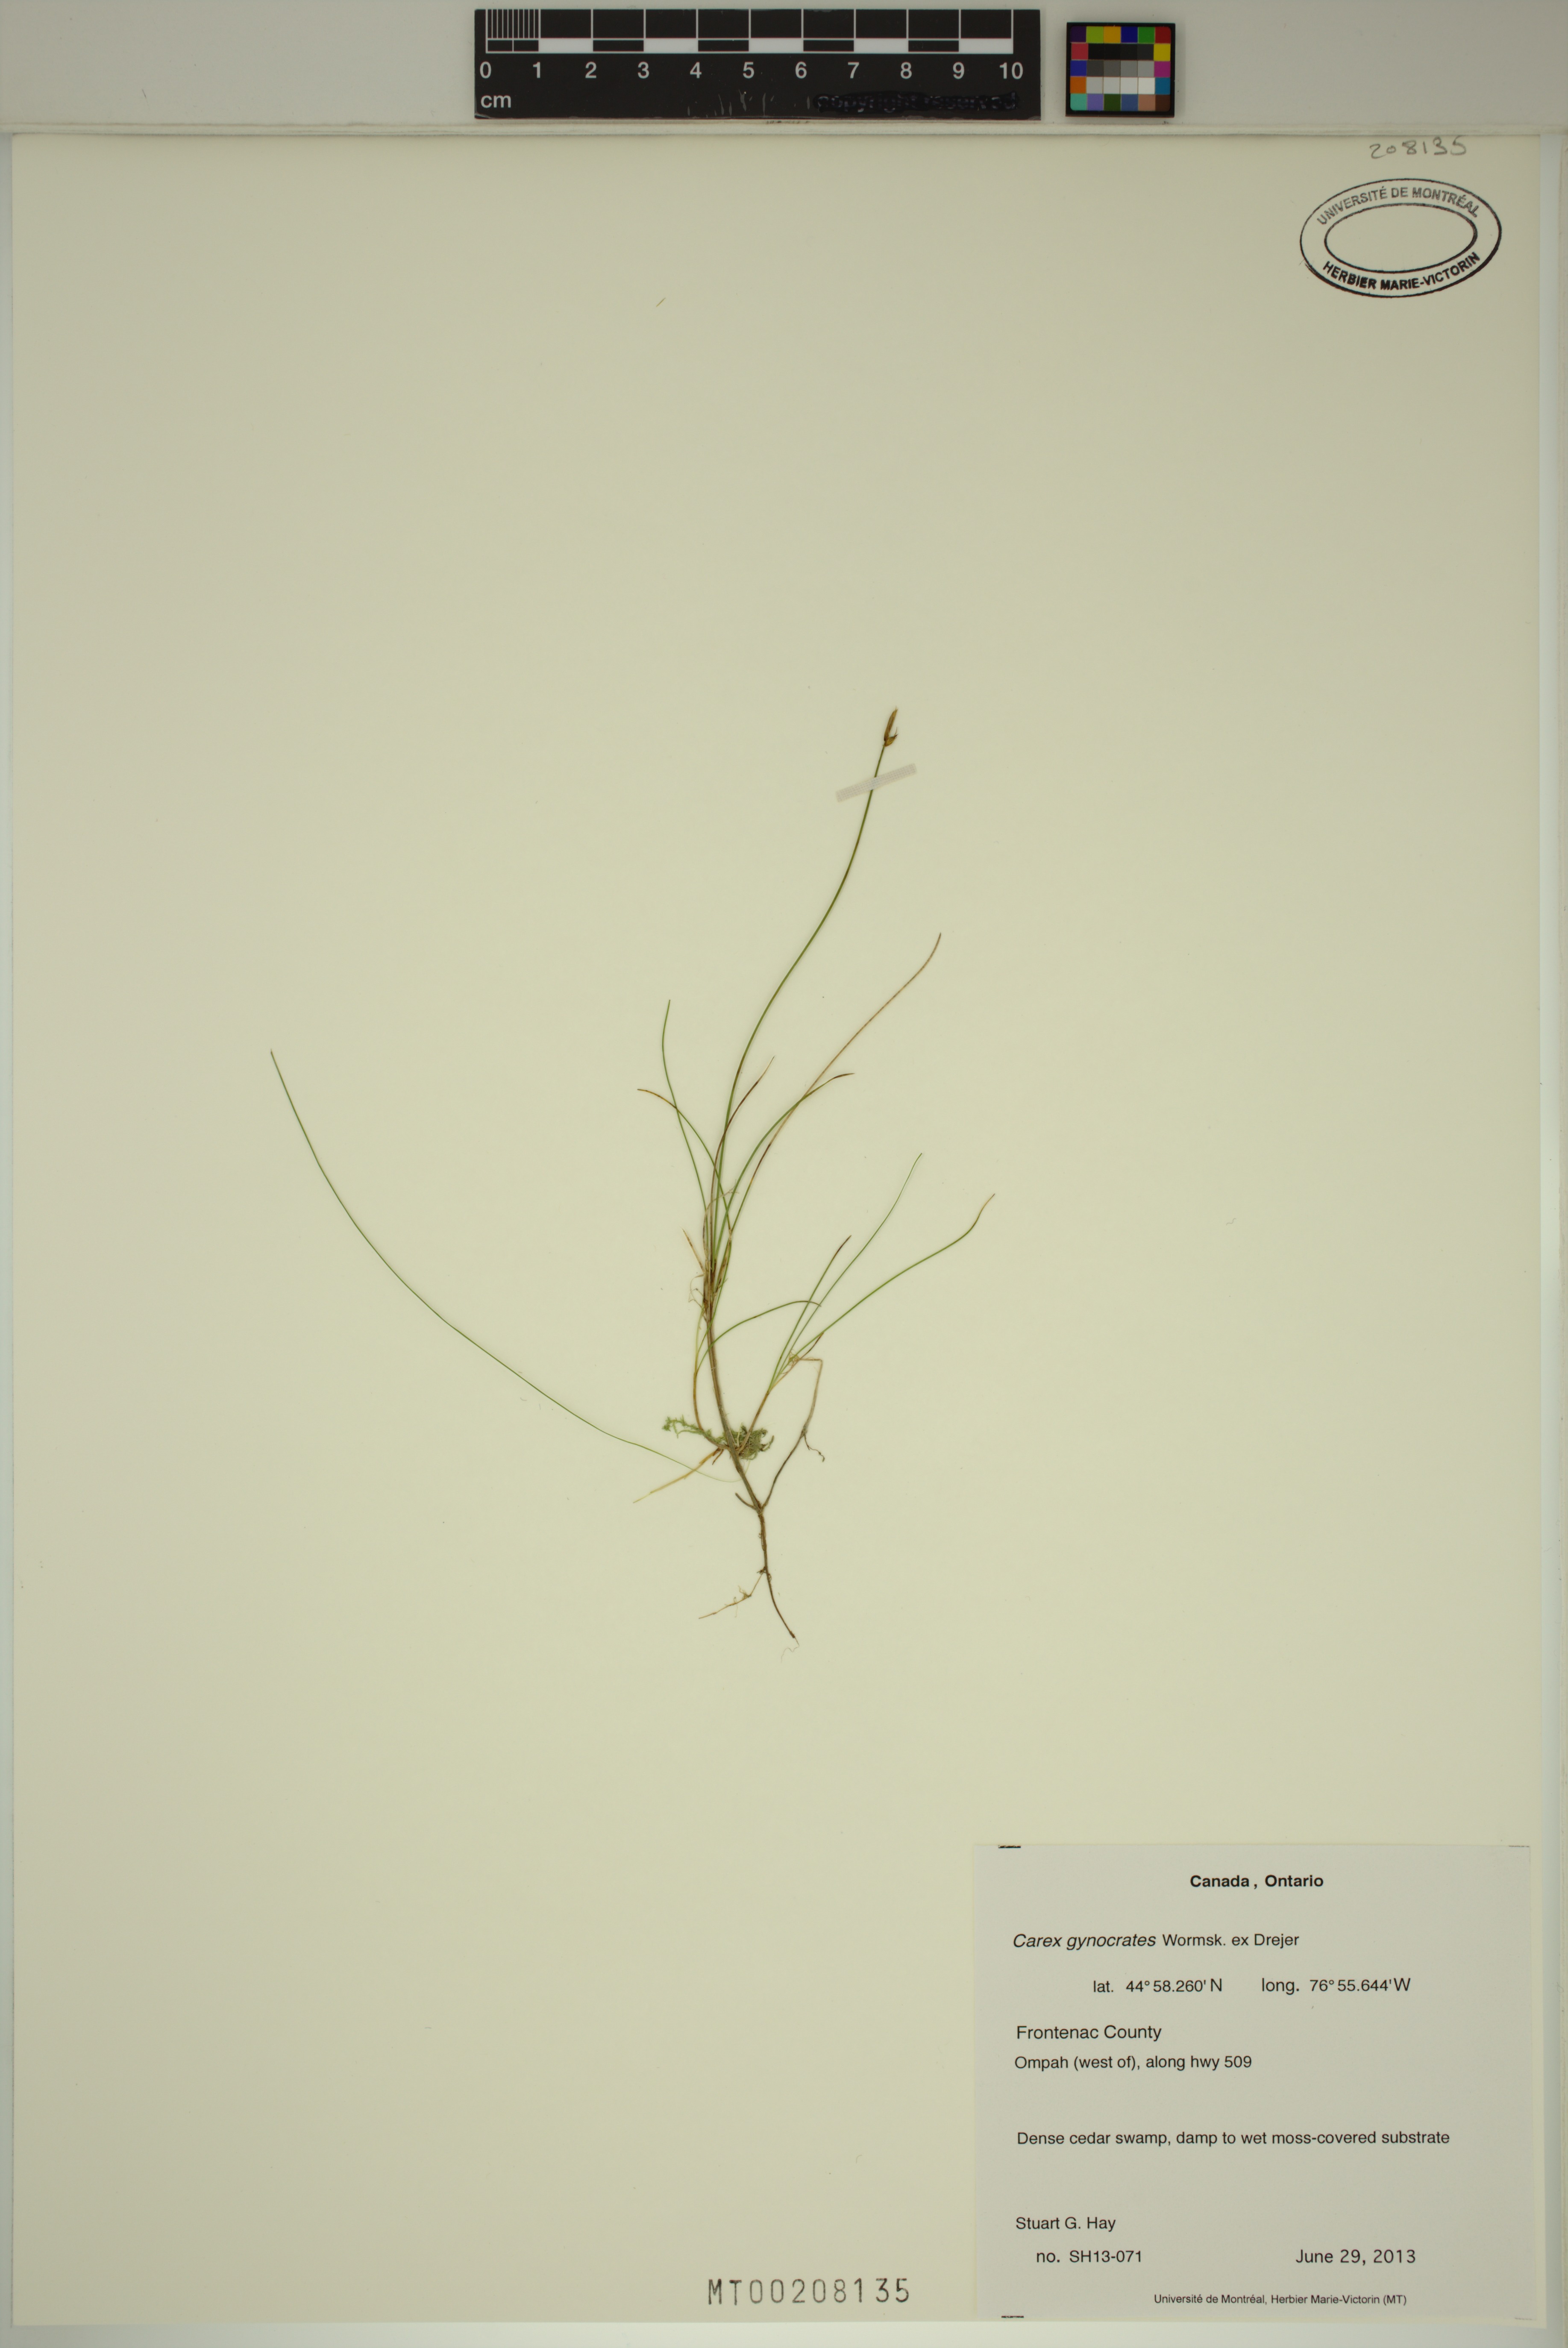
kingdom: Plantae
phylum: Tracheophyta
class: Liliopsida
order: Poales
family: Cyperaceae
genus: Carex
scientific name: Carex nardina
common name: Nard sedge
